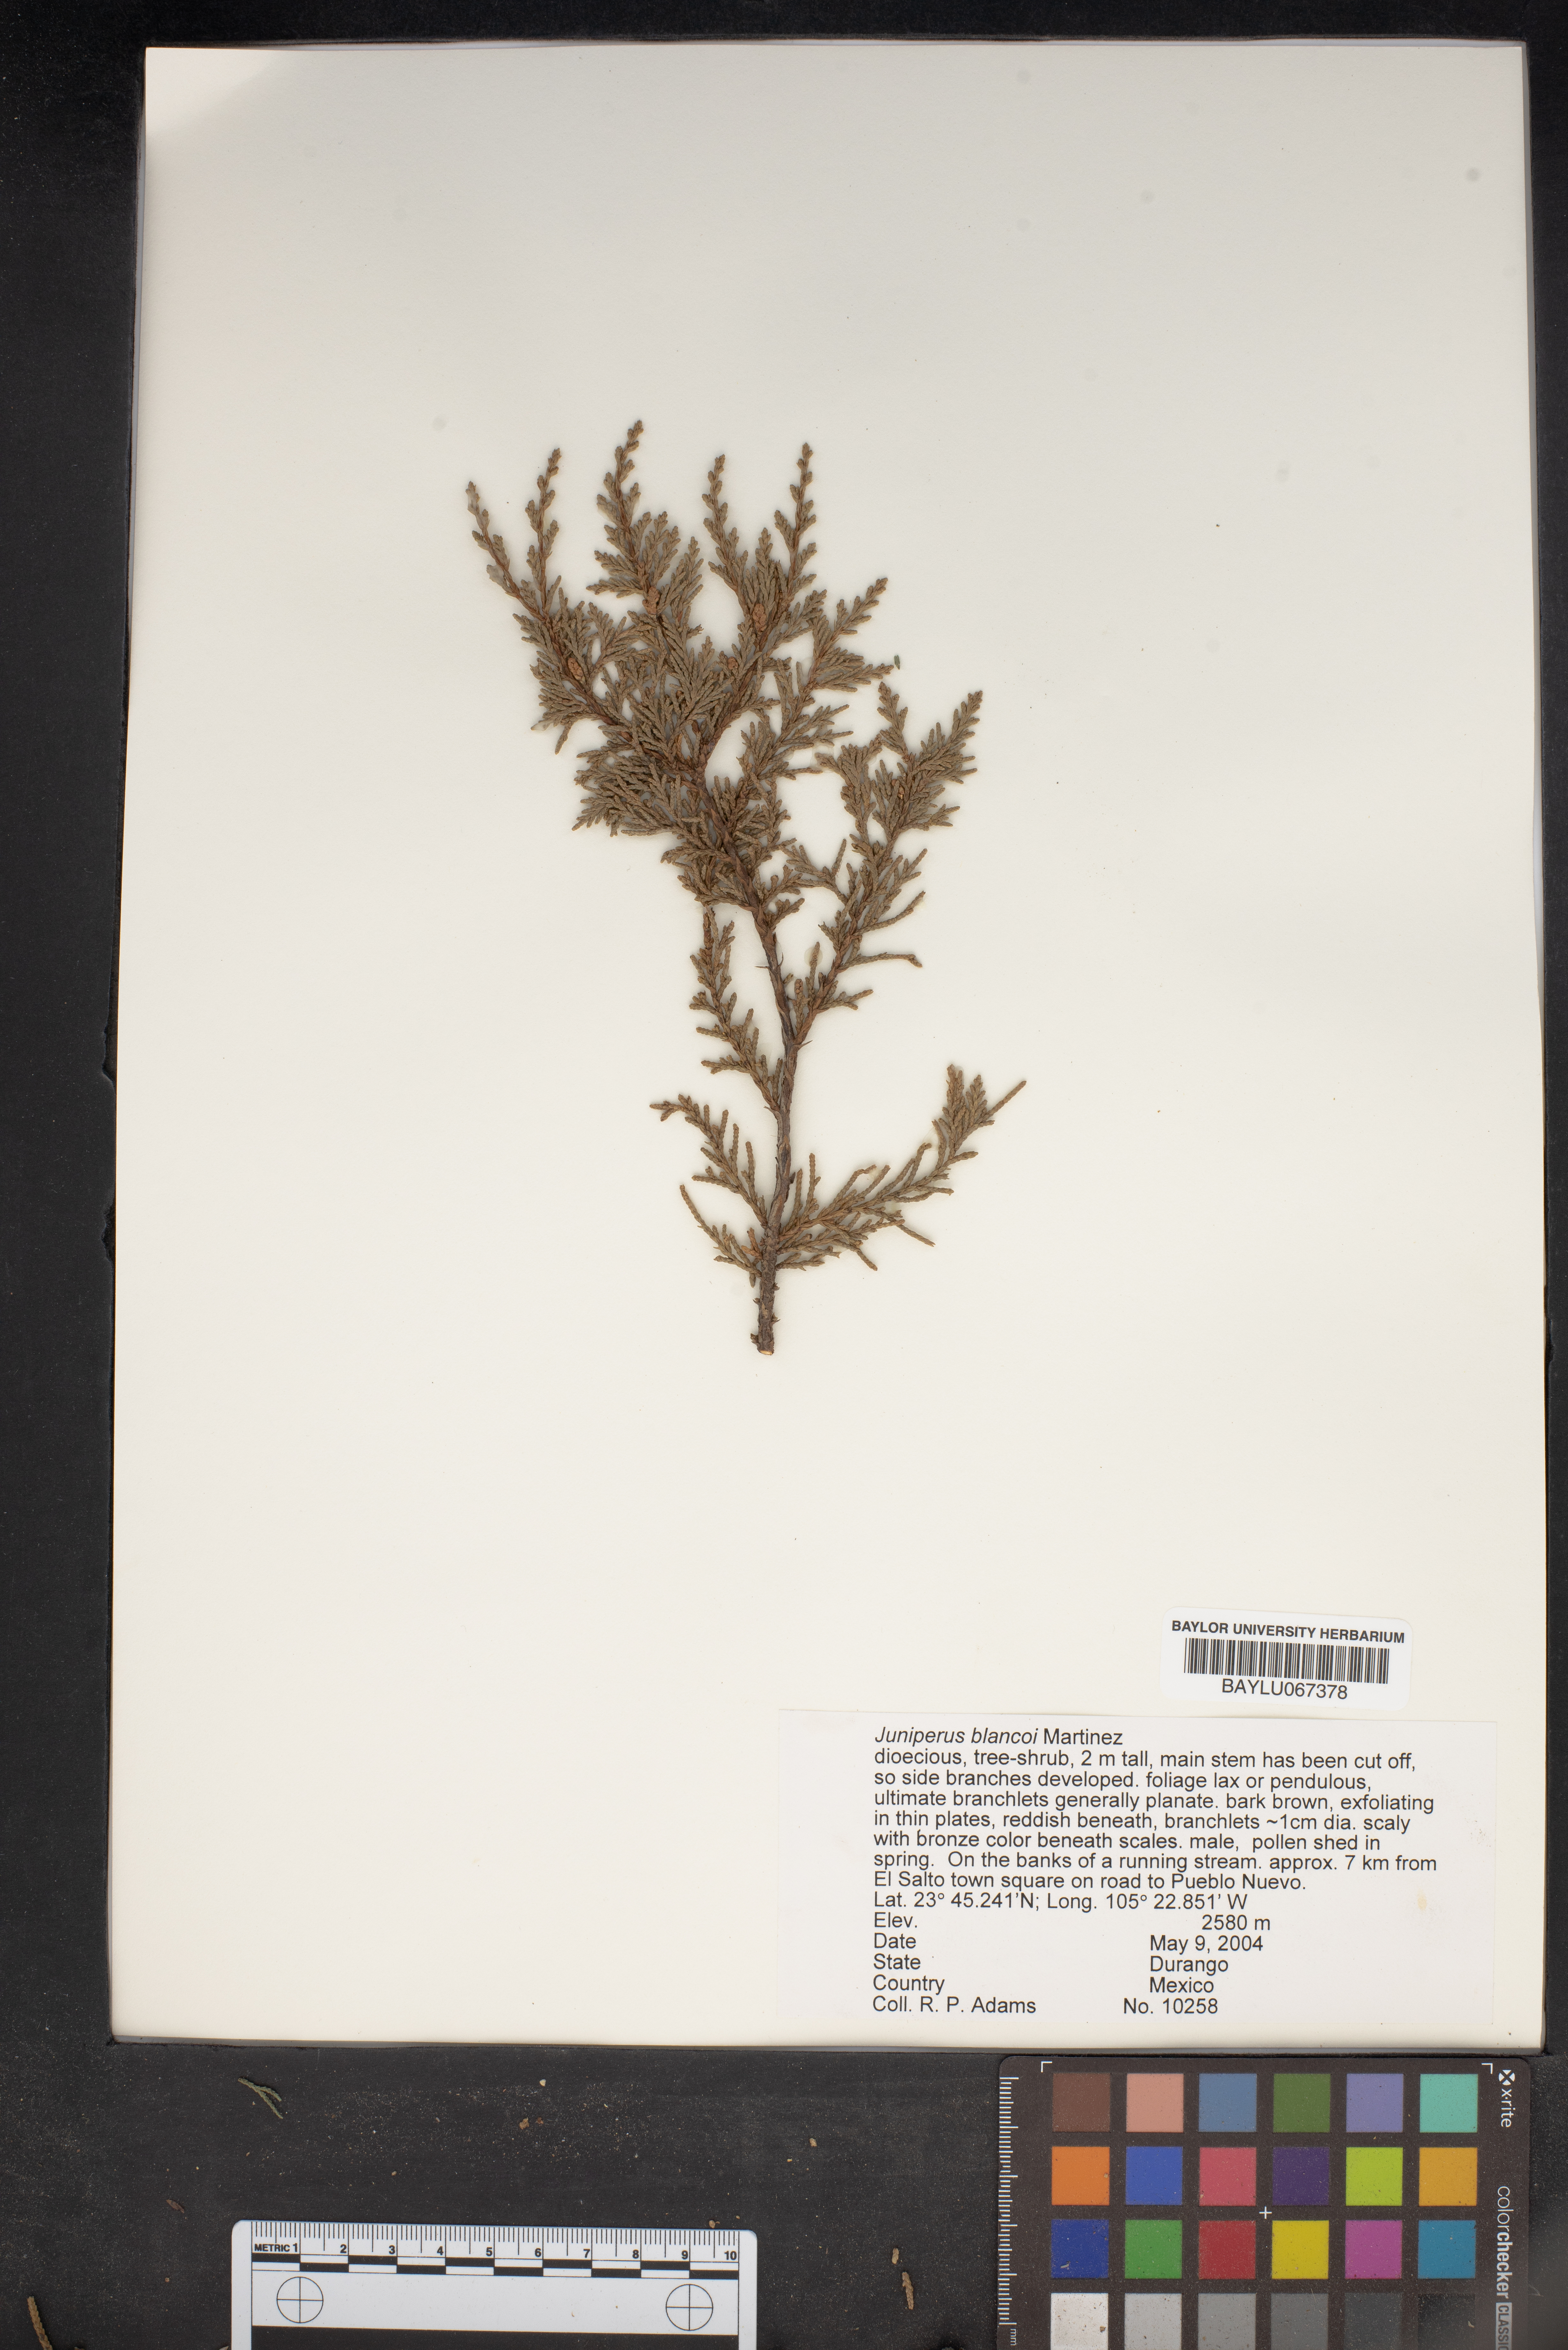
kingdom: Plantae
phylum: Tracheophyta
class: Pinopsida
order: Pinales
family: Cupressaceae
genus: Juniperus
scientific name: Juniperus blancoi
